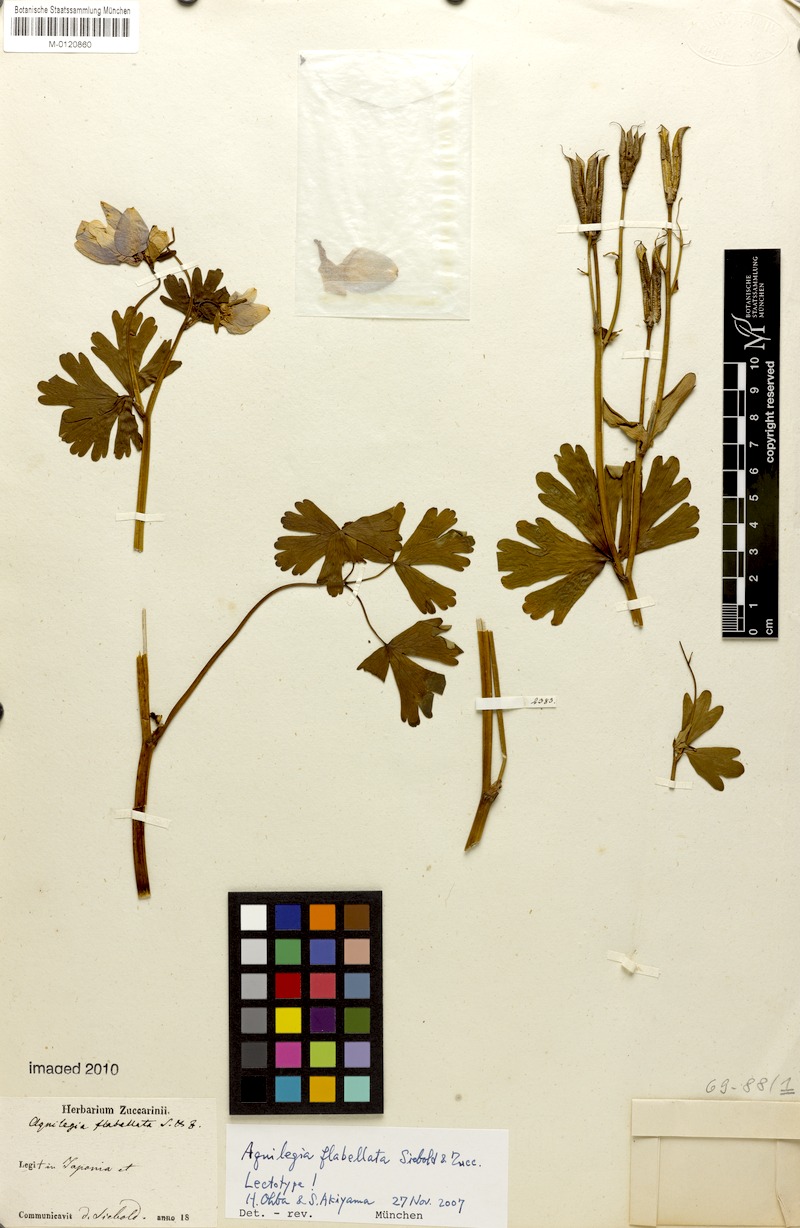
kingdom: Plantae
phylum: Tracheophyta
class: Magnoliopsida
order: Ranunculales
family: Ranunculaceae
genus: Aquilegia
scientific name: Aquilegia flabellata
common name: Fan columbine
